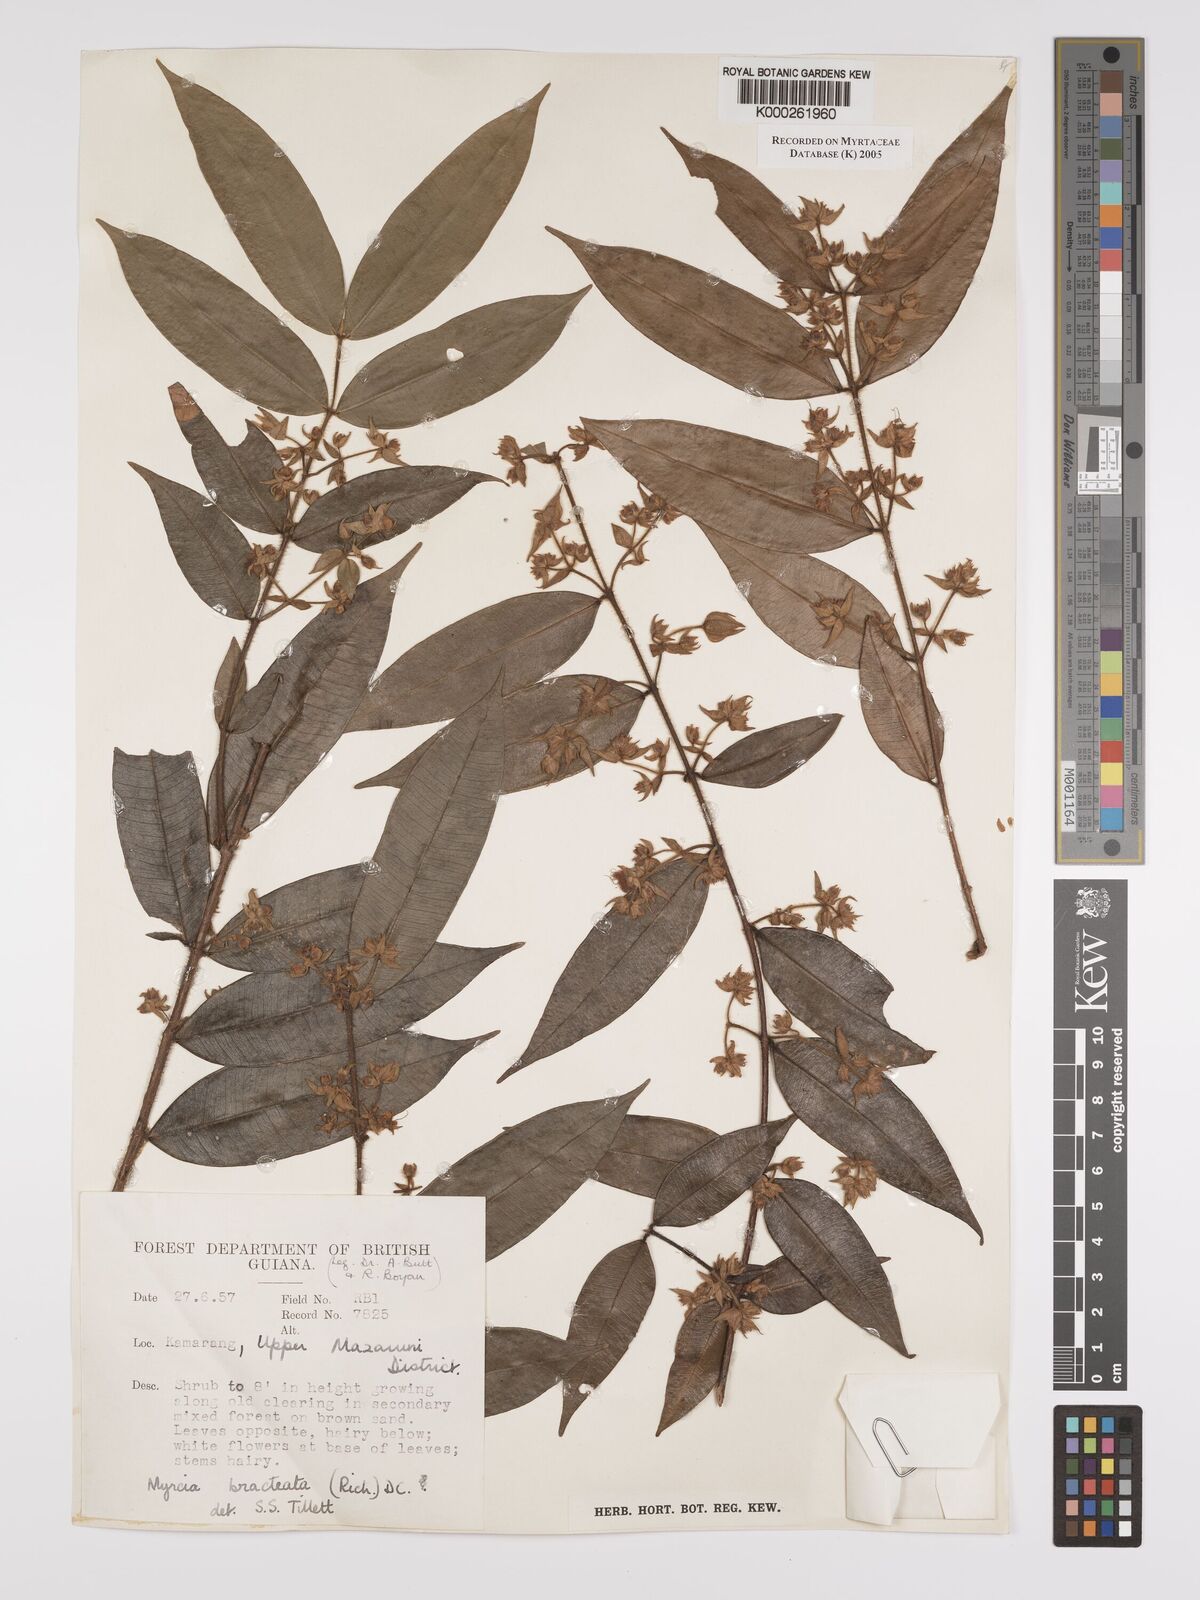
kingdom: Plantae
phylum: Tracheophyta
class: Magnoliopsida
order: Myrtales
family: Myrtaceae
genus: Myrcia
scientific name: Myrcia bracteata
